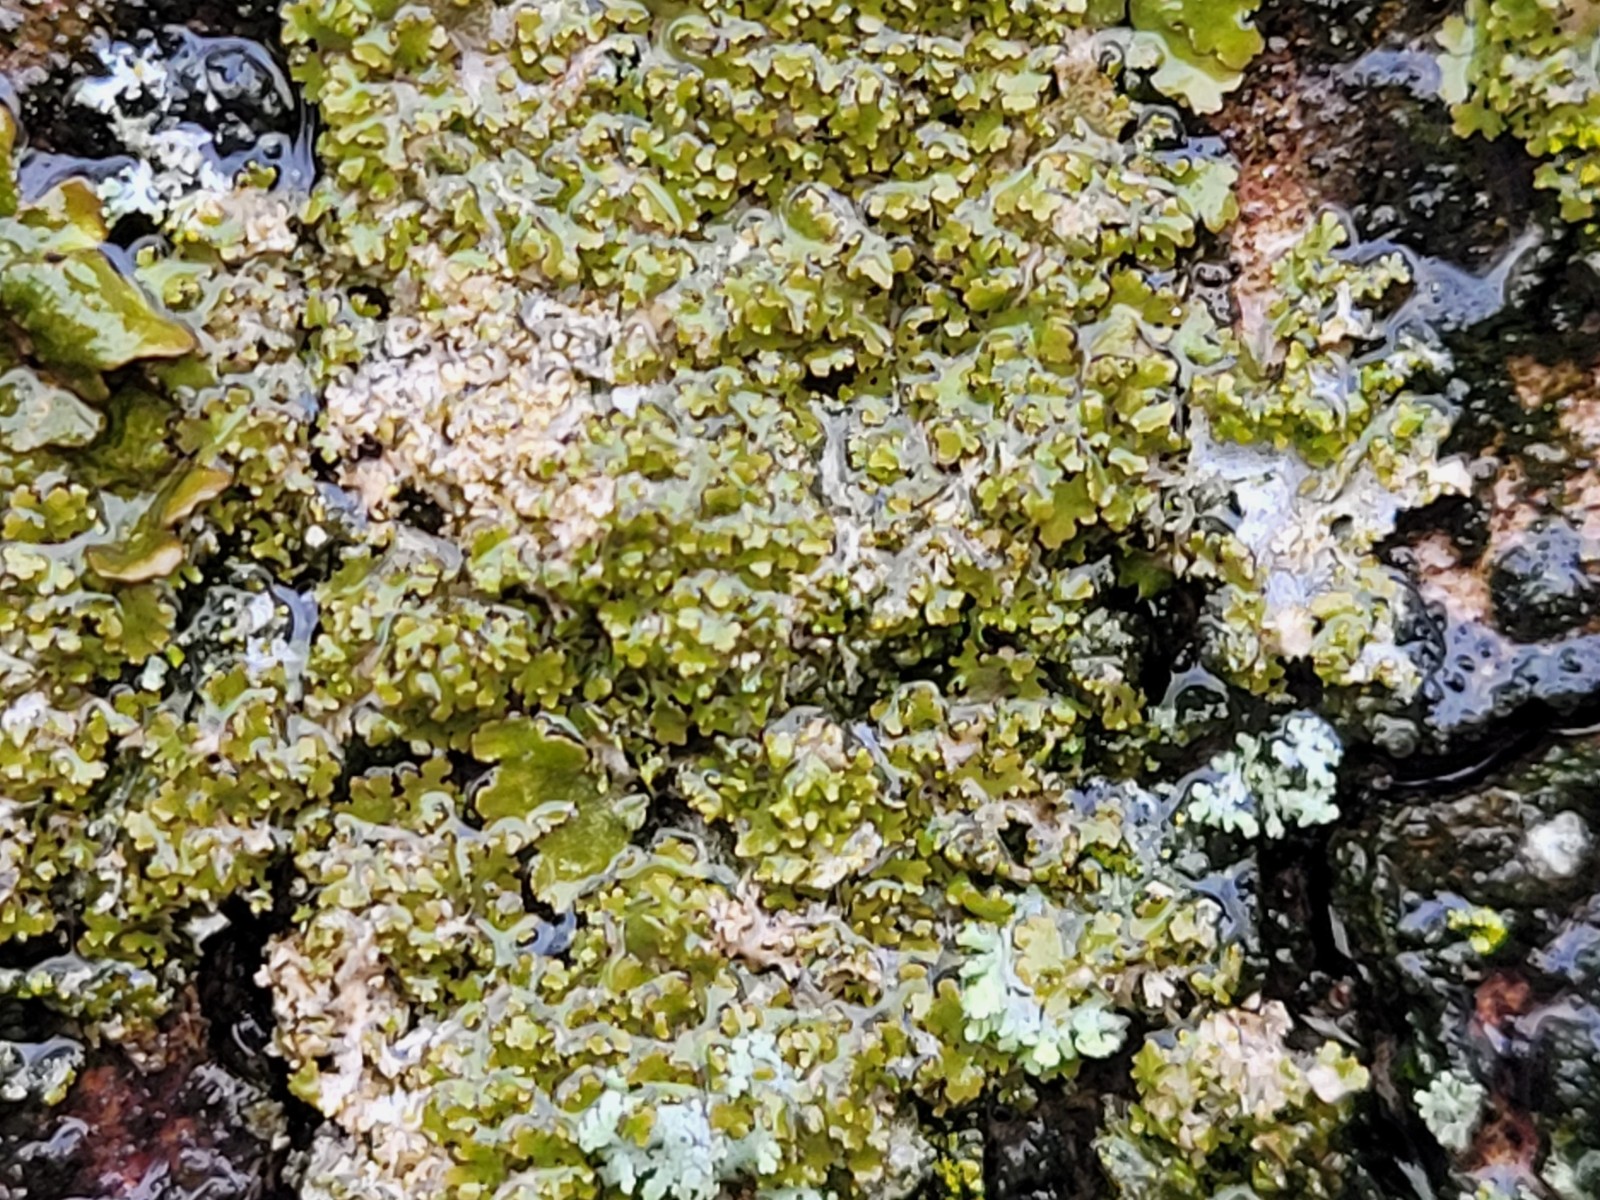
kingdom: Fungi
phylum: Ascomycota
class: Lecanoromycetes
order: Lecanorales
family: Parmeliaceae
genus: Melanohalea
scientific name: Melanohalea laciniatula
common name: småfliget skållav
